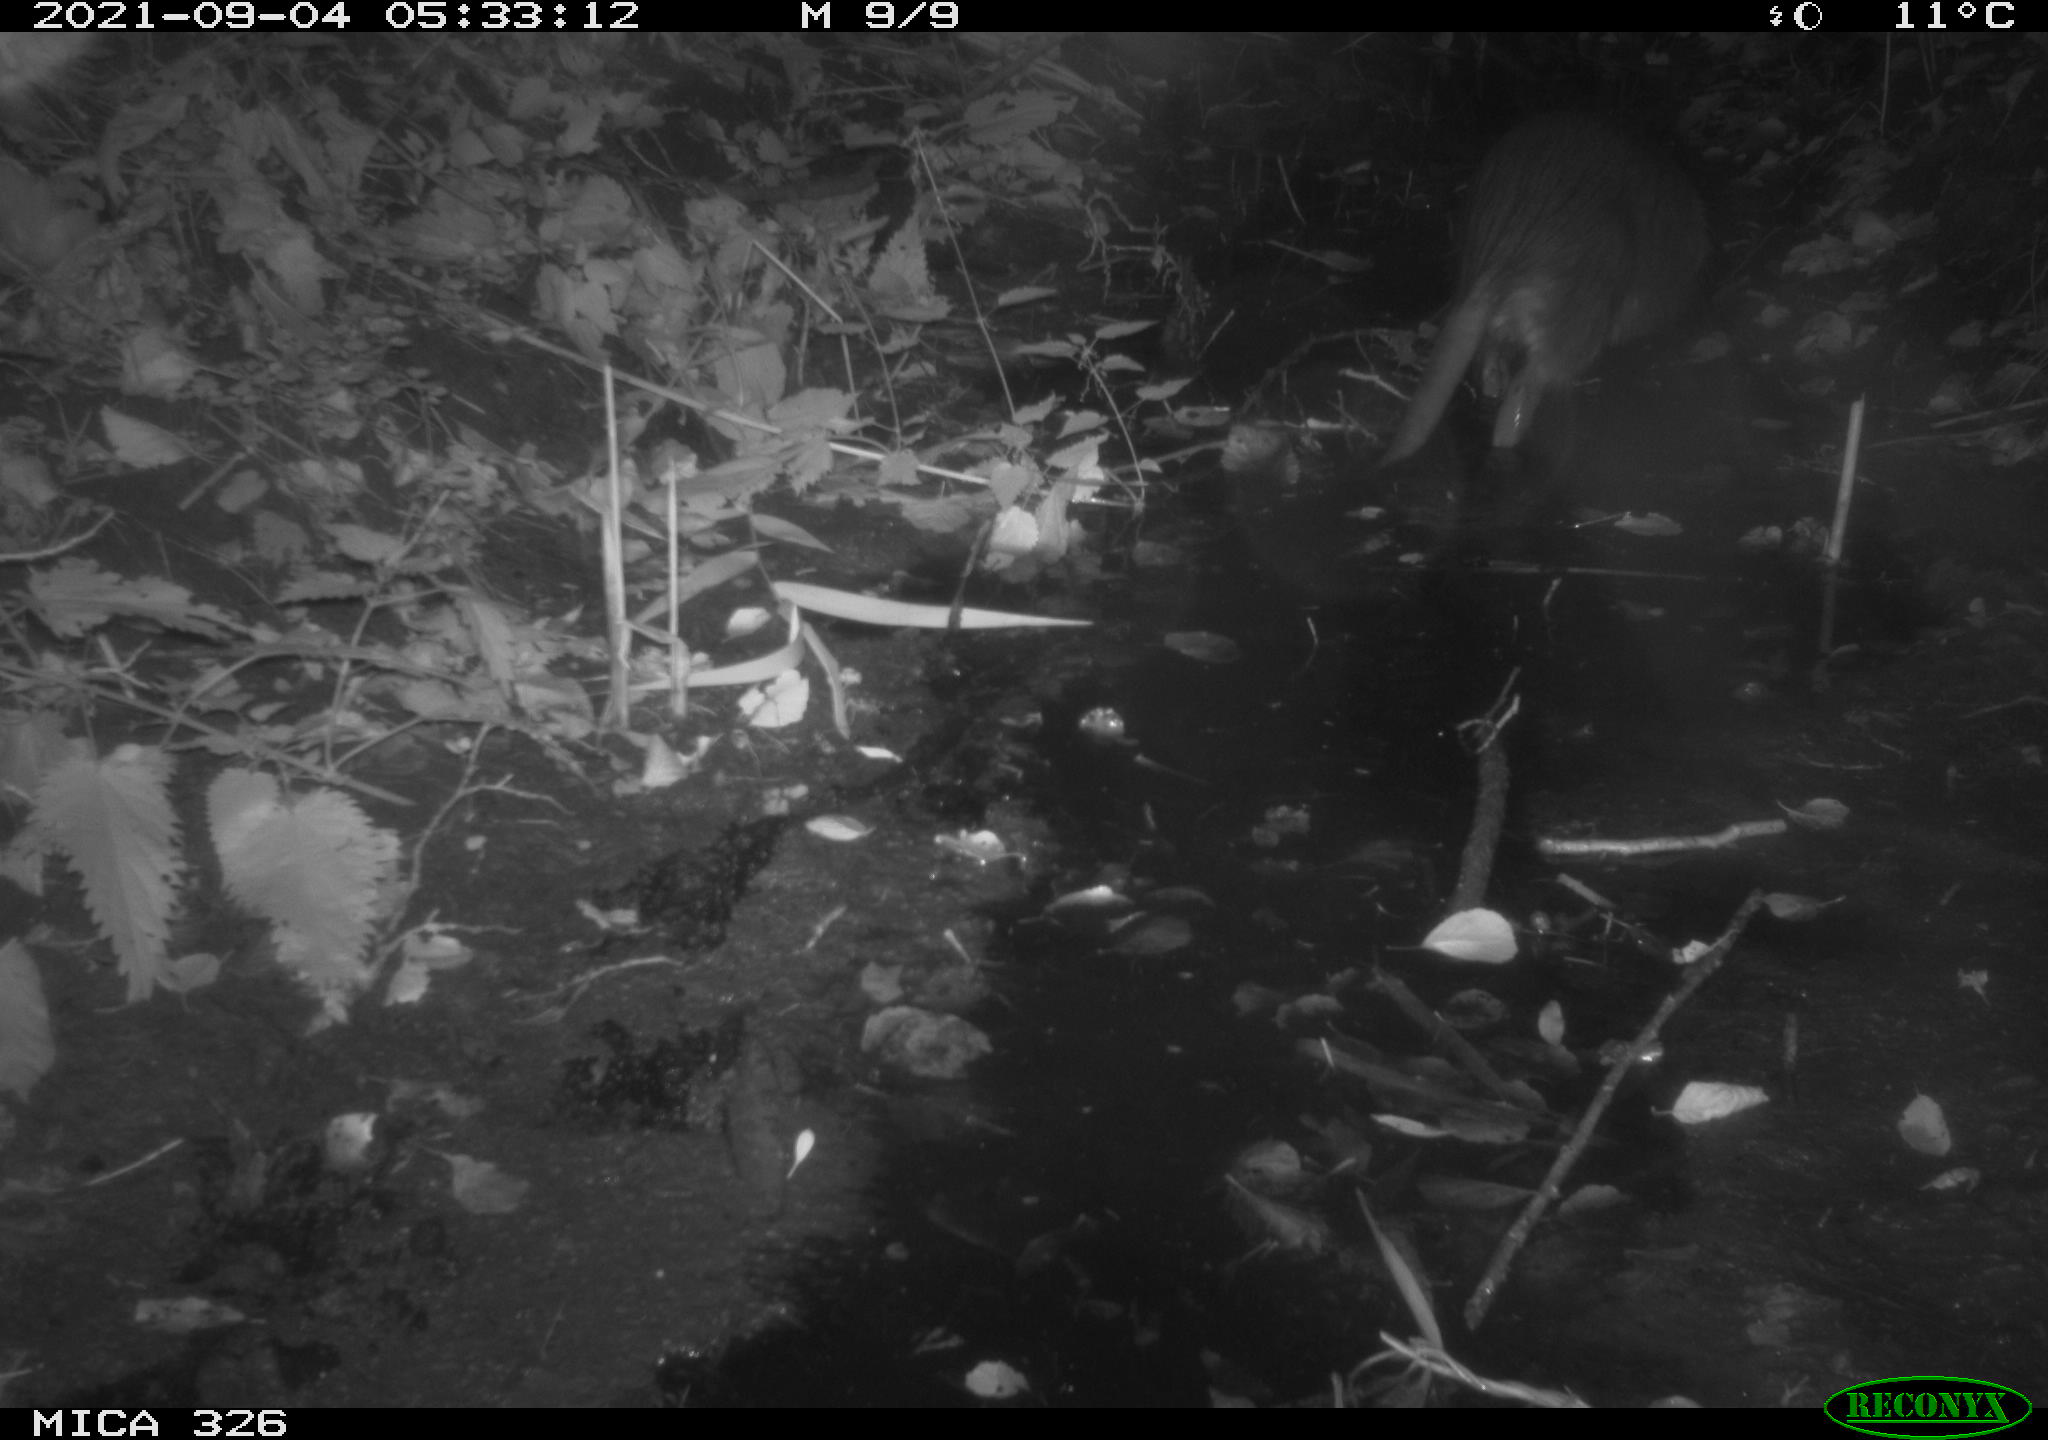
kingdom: Animalia
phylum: Chordata
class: Mammalia
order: Rodentia
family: Myocastoridae
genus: Myocastor
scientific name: Myocastor coypus
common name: Coypu
